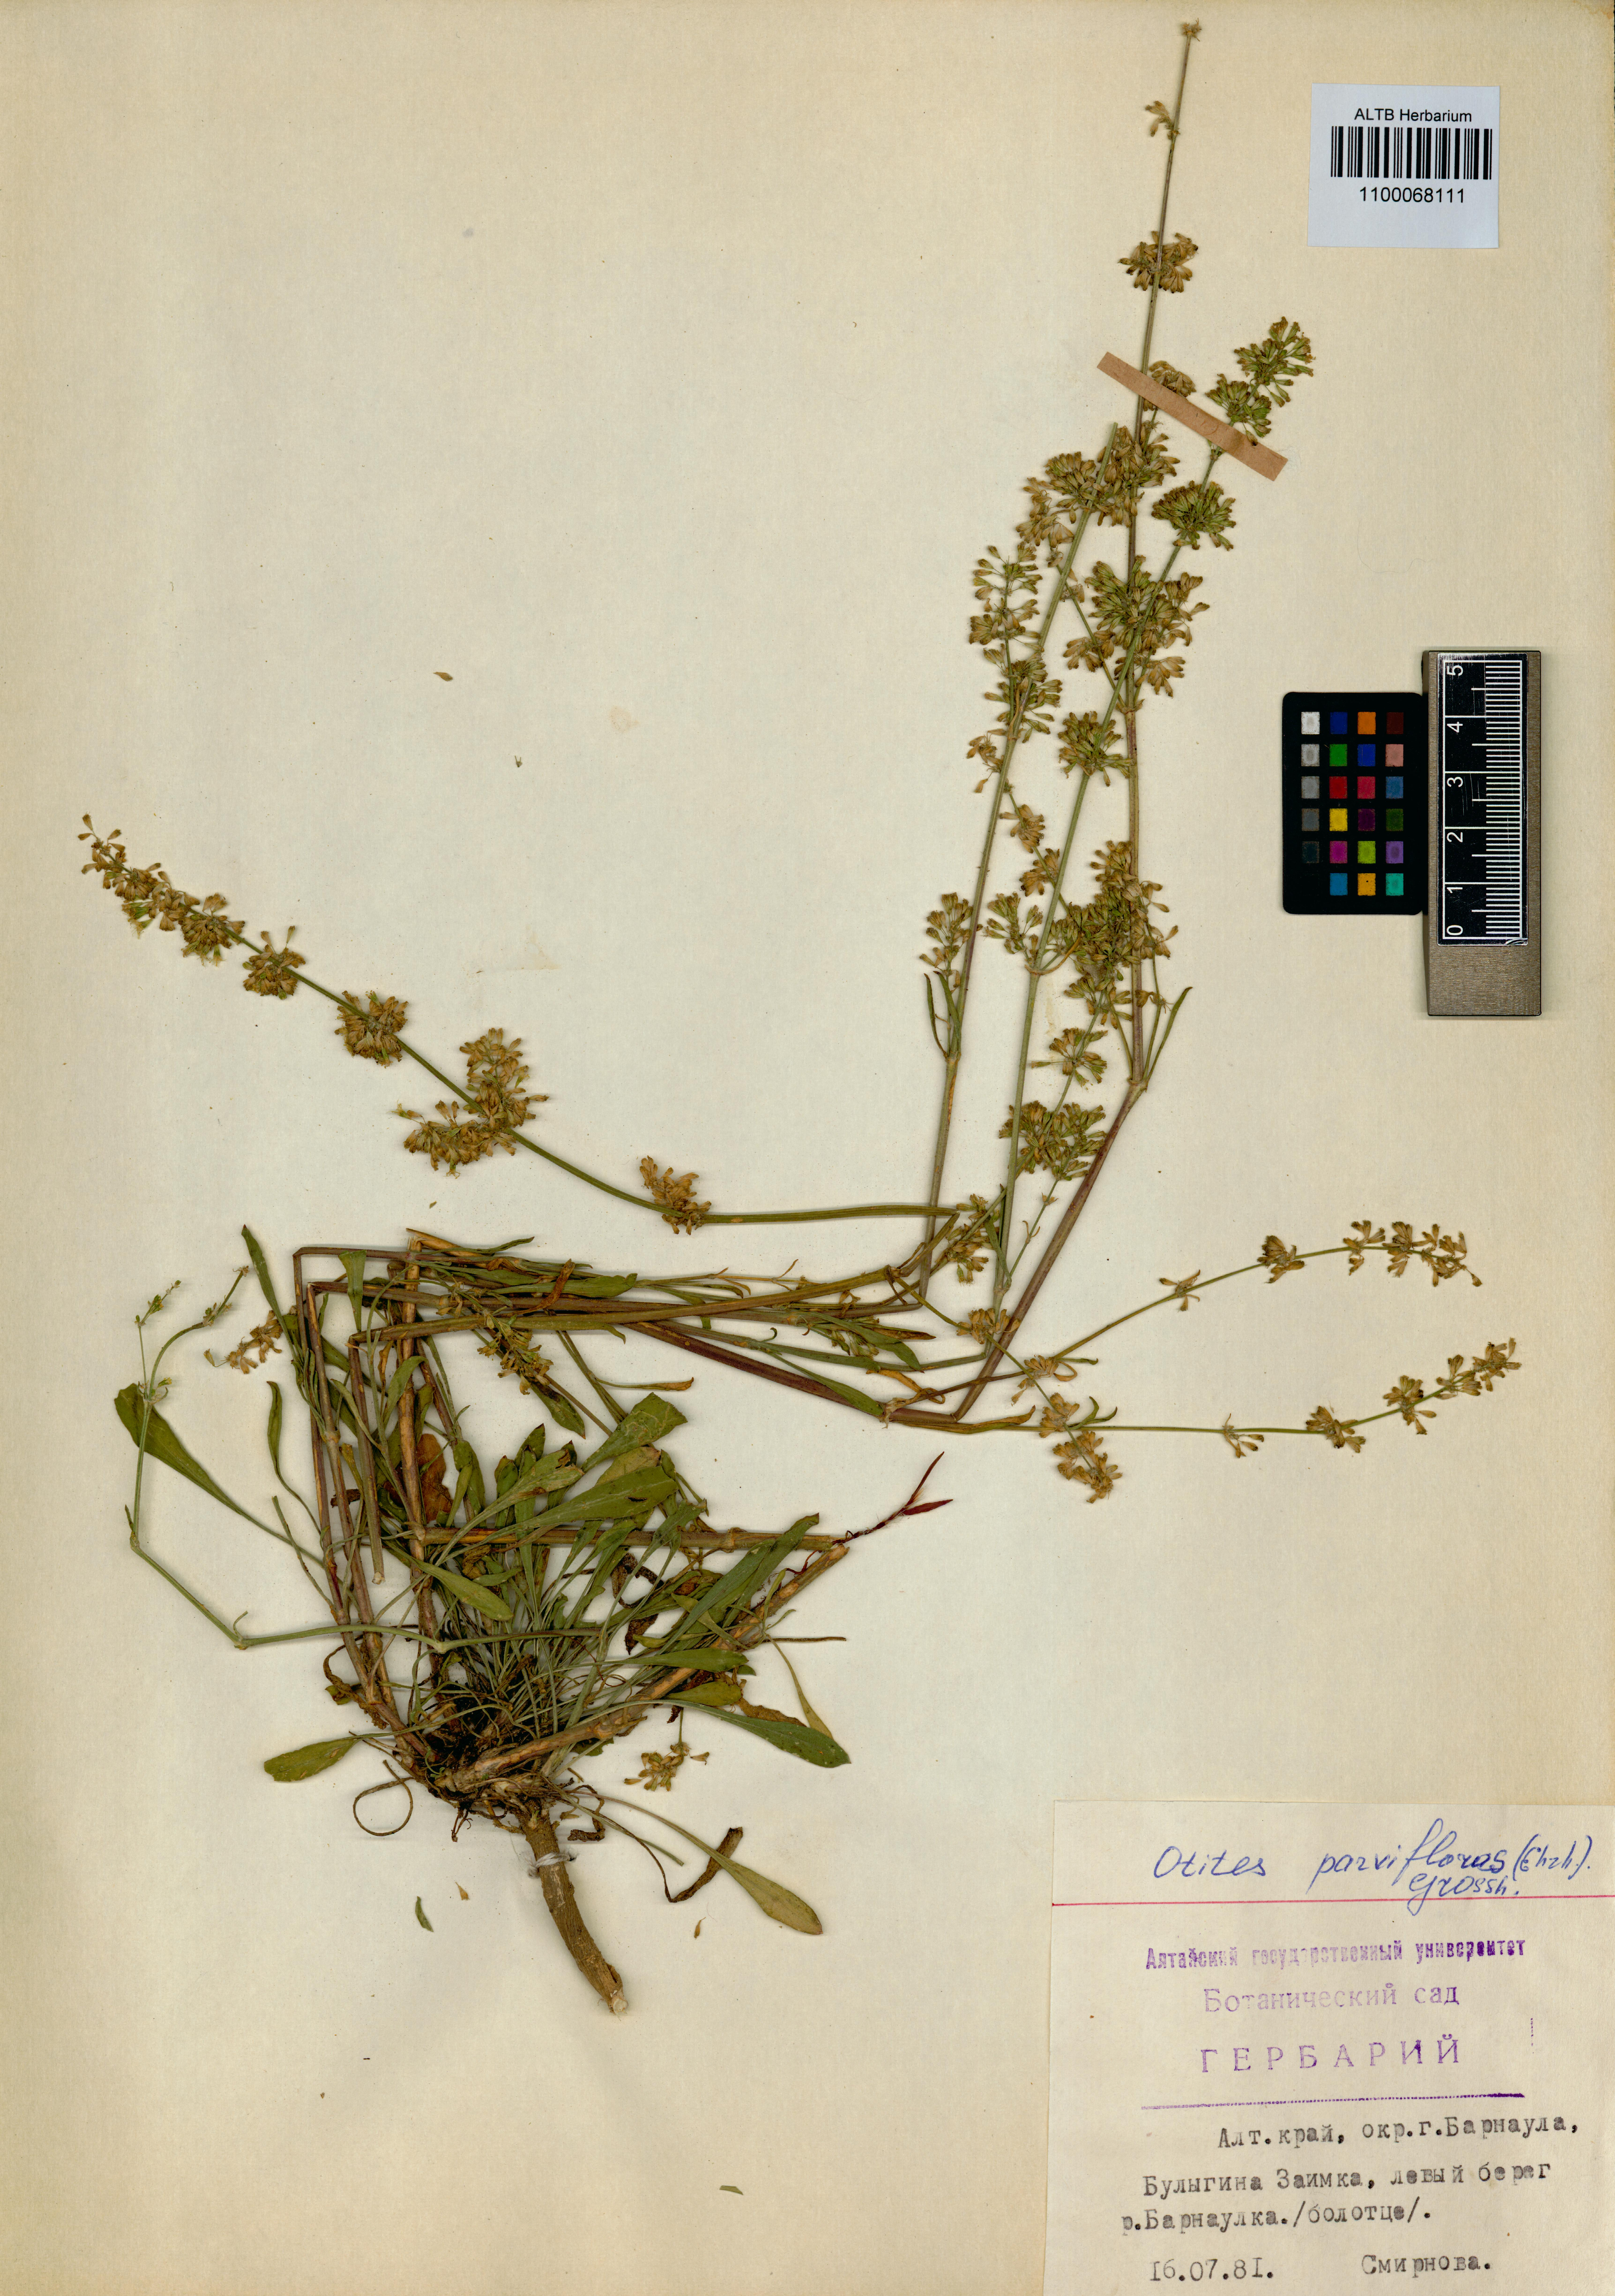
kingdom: Plantae
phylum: Tracheophyta
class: Magnoliopsida
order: Caryophyllales
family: Caryophyllaceae
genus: Silene
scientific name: Silene borysthenica
